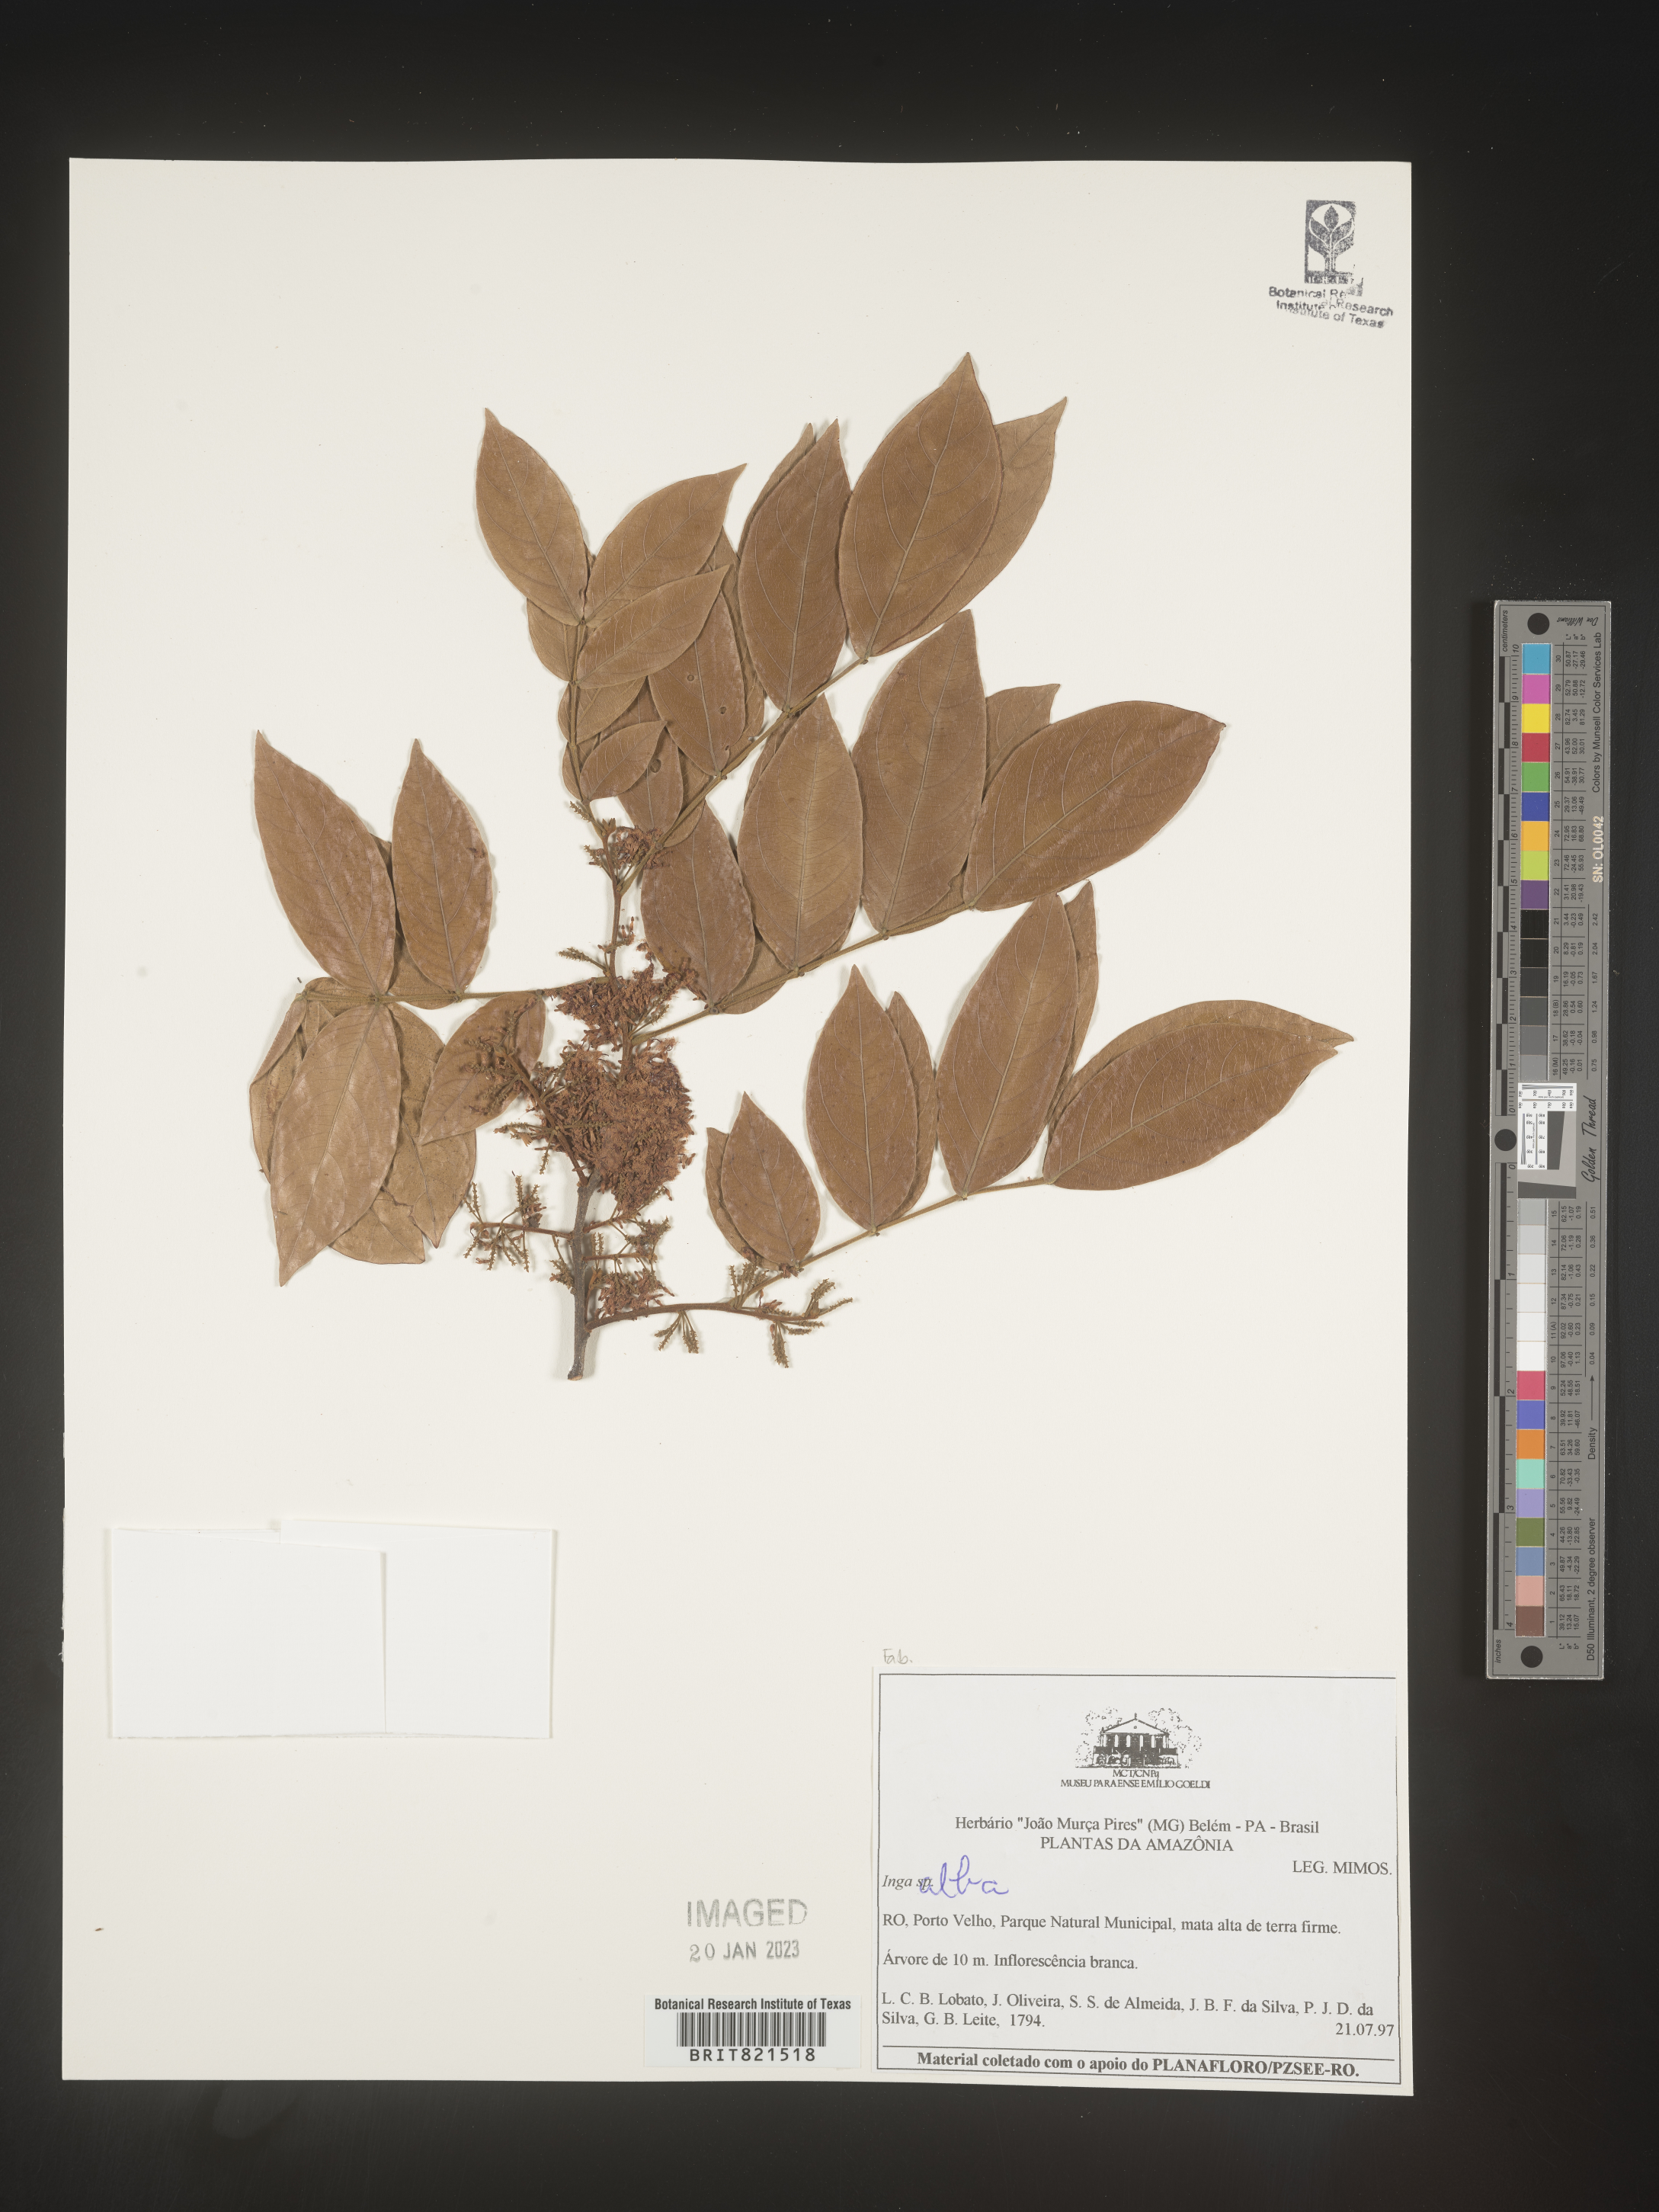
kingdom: Plantae
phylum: Tracheophyta
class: Magnoliopsida
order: Fabales
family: Fabaceae
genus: Inga
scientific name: Inga
